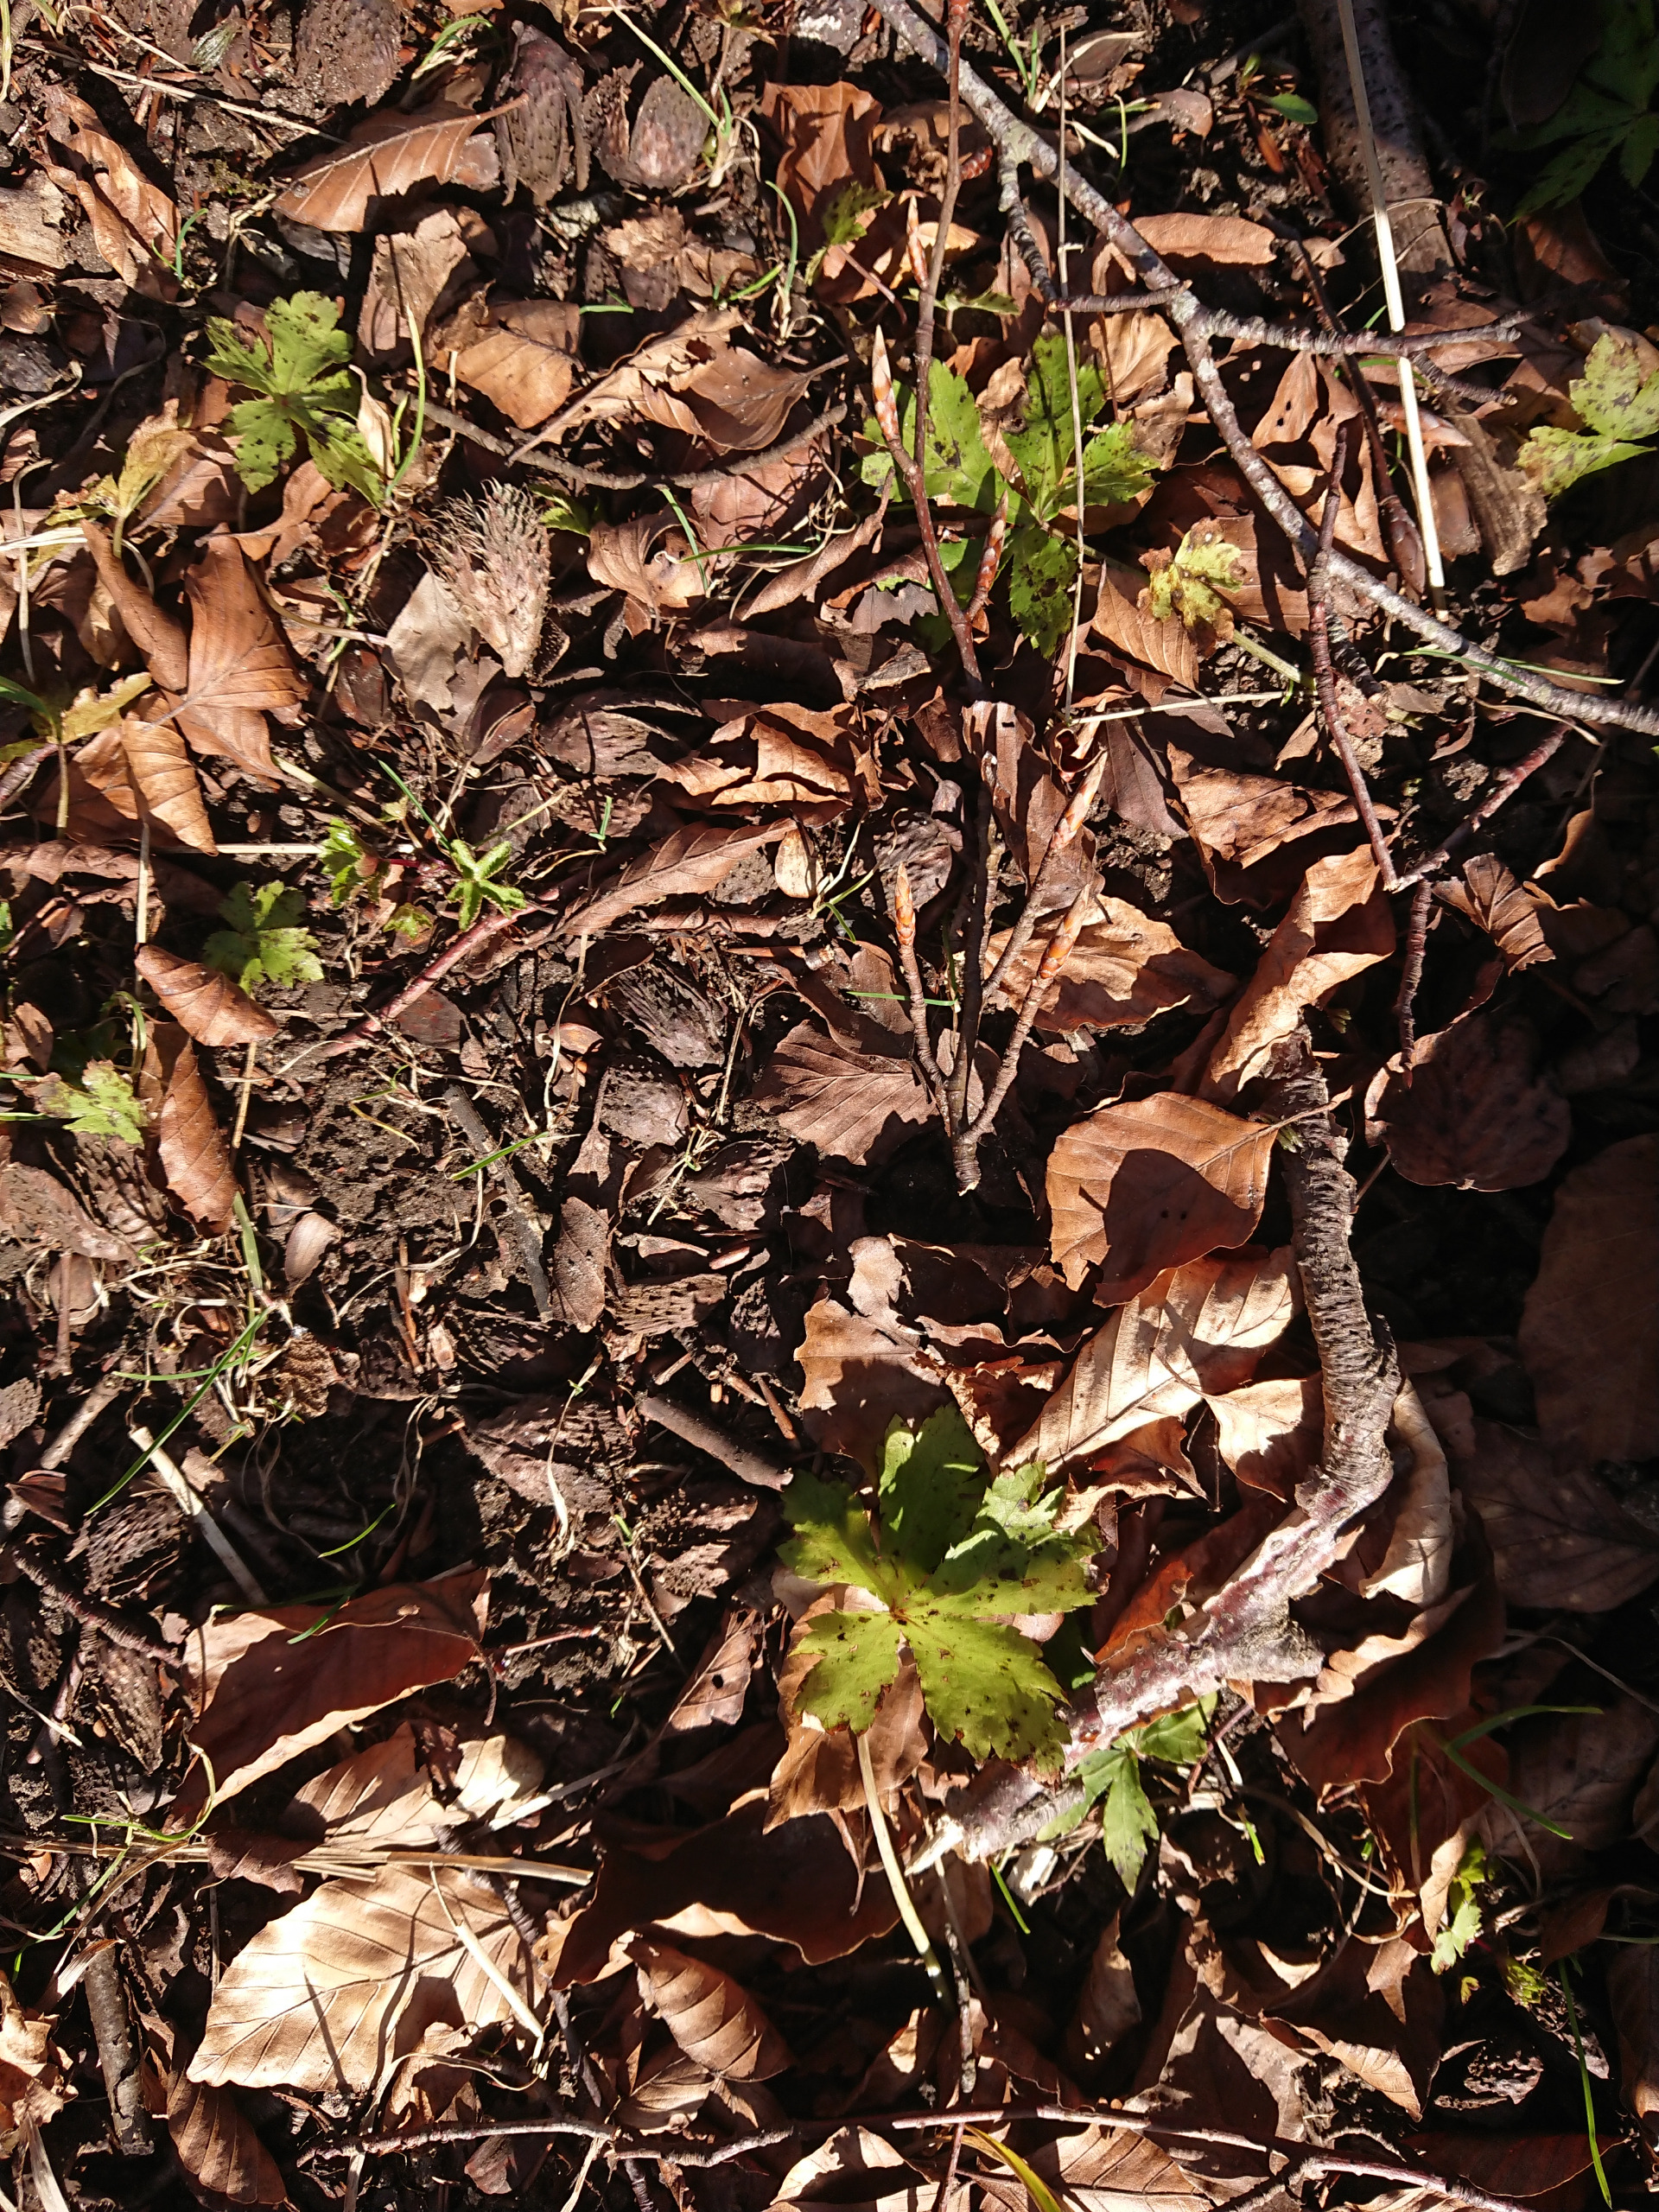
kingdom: Plantae
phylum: Tracheophyta
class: Magnoliopsida
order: Apiales
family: Apiaceae
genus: Sanicula
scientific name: Sanicula europaea
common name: Sanikel
